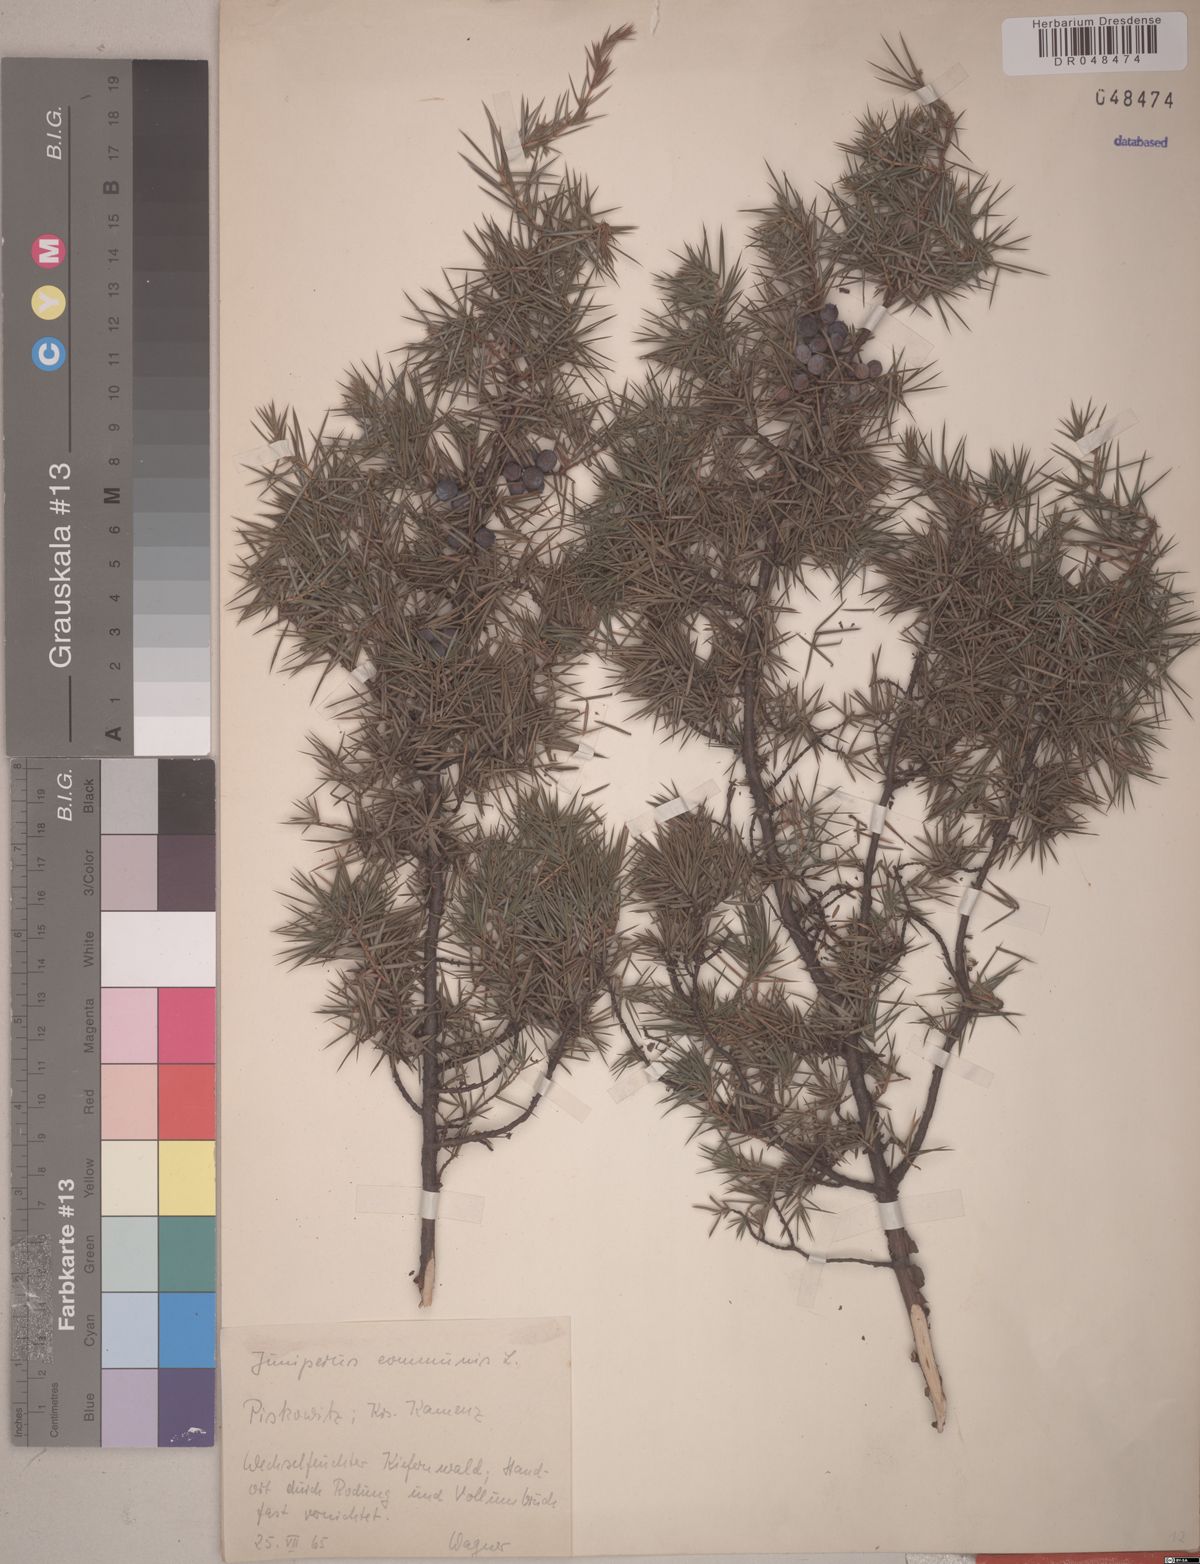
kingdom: Plantae
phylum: Tracheophyta
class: Pinopsida
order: Pinales
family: Cupressaceae
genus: Juniperus
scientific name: Juniperus communis
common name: Common juniper
